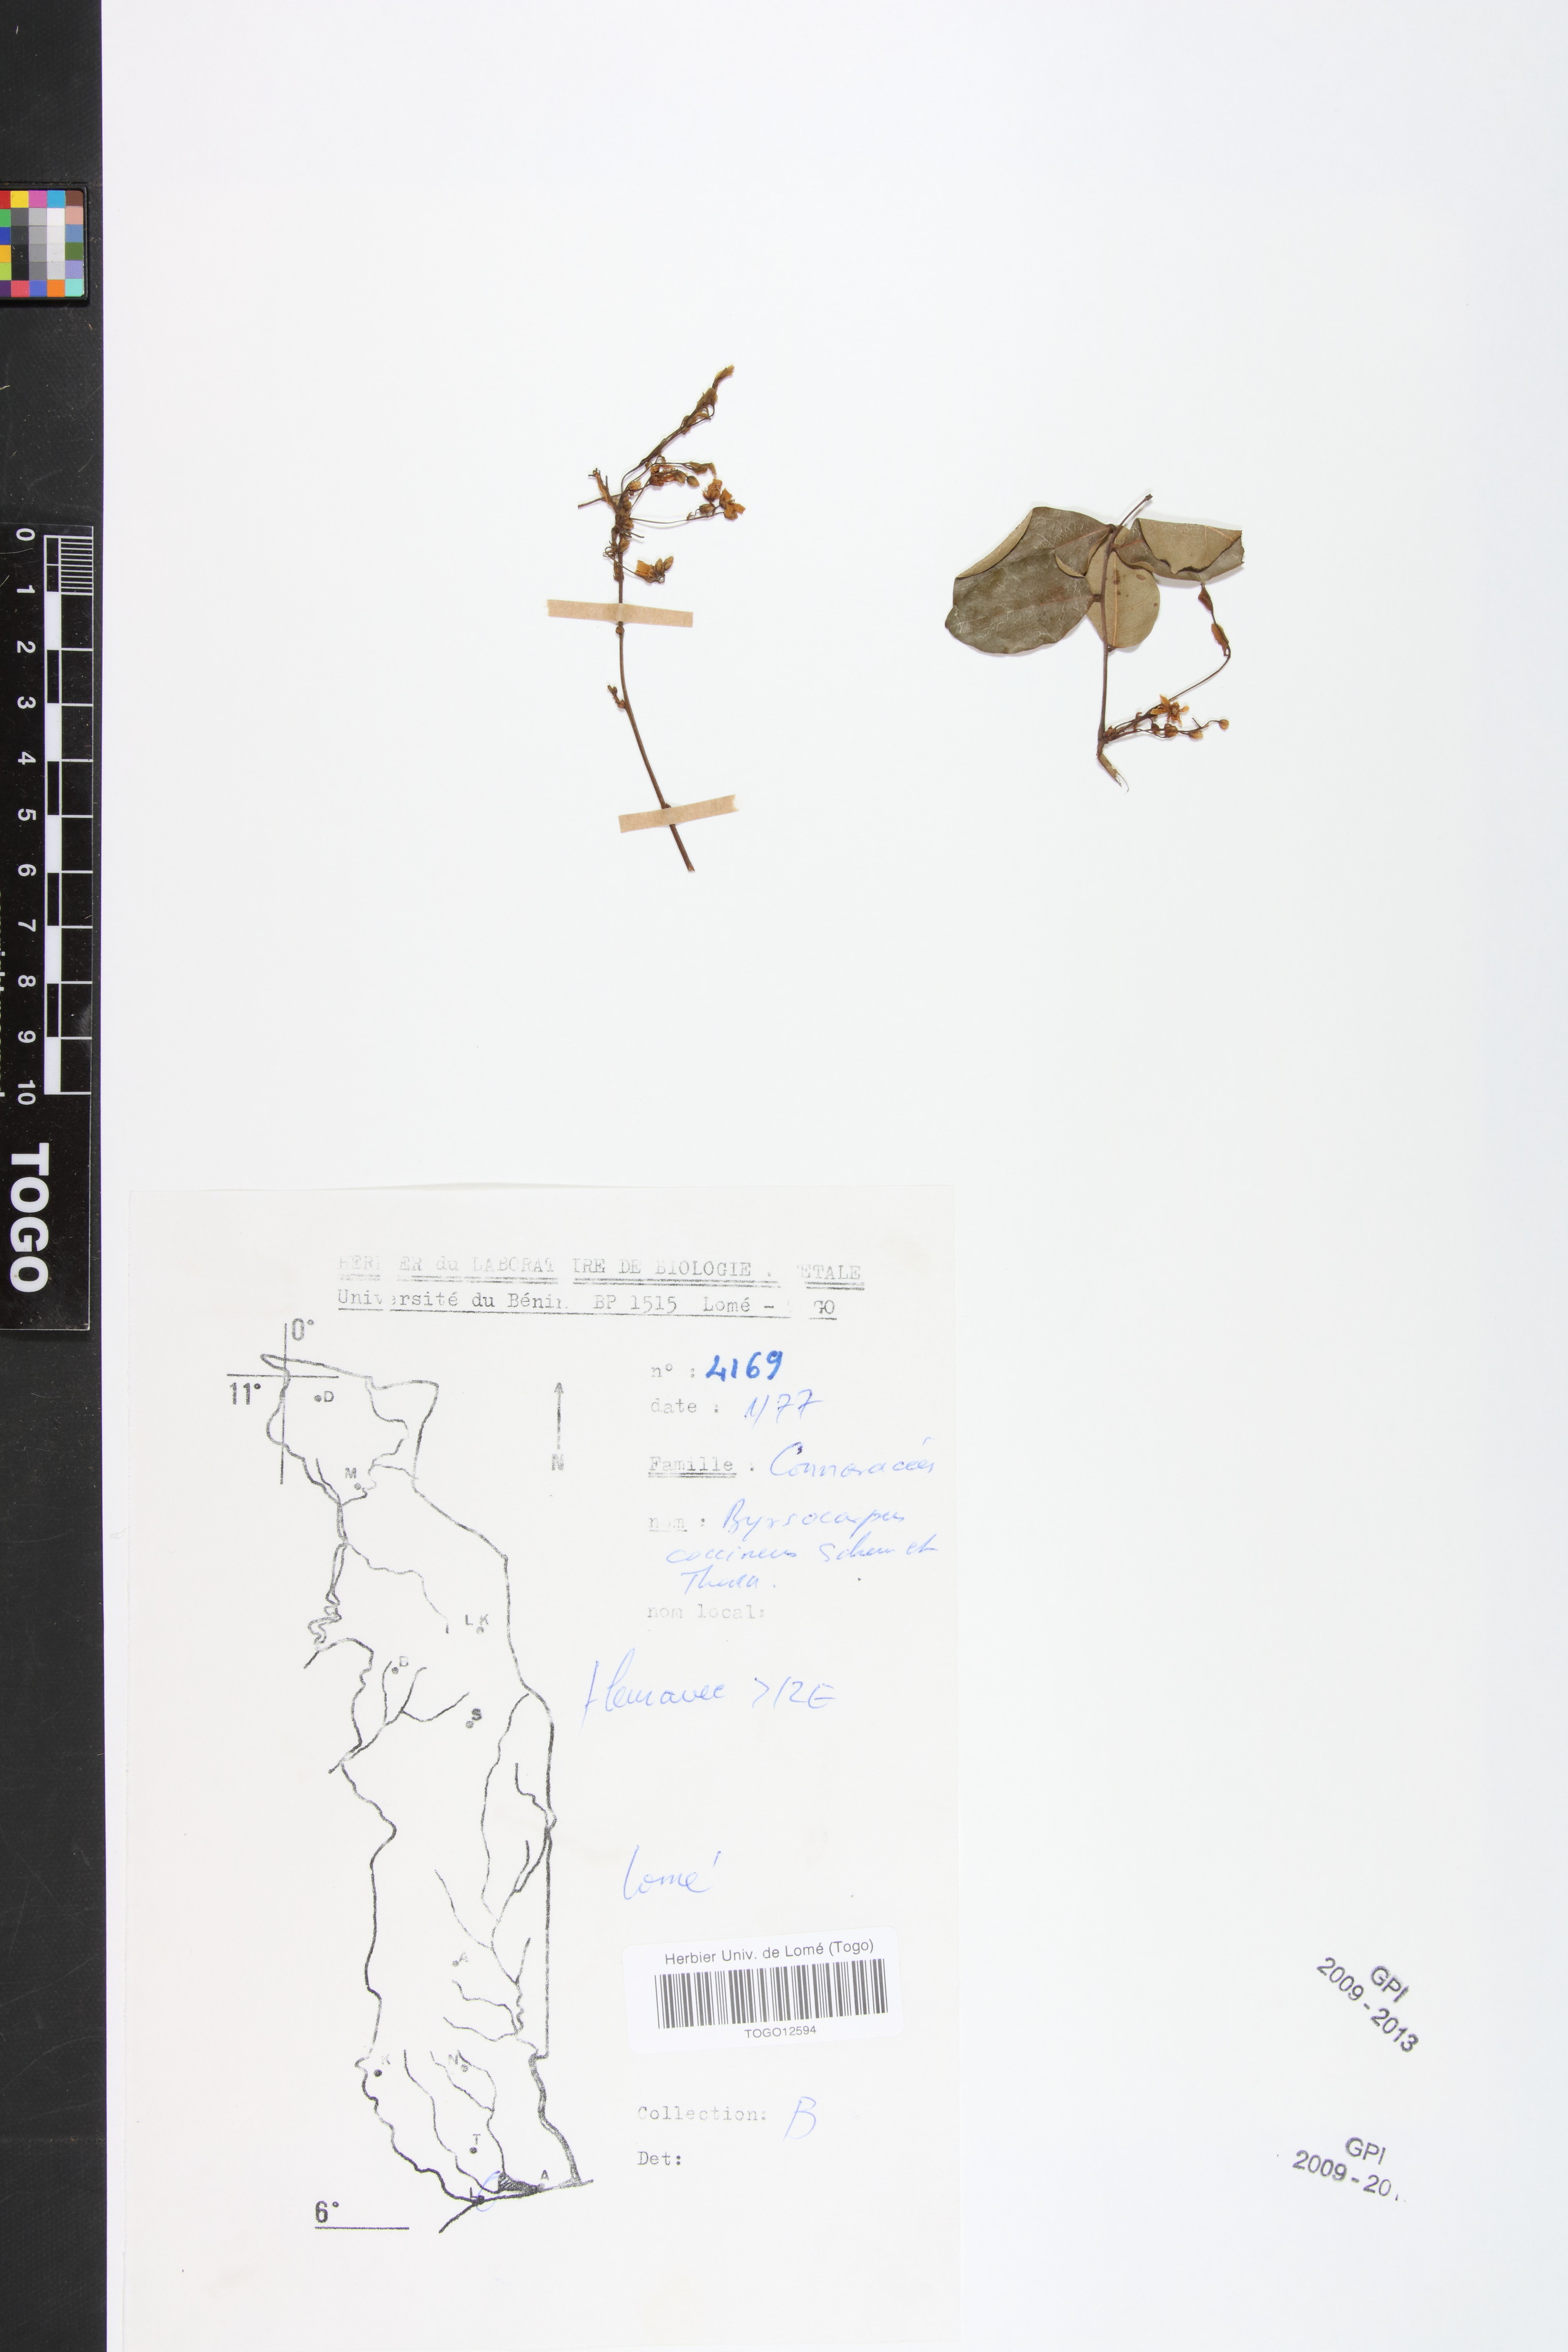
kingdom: Plantae
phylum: Tracheophyta
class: Magnoliopsida
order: Oxalidales
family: Connaraceae
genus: Rourea
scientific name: Rourea coccinea
